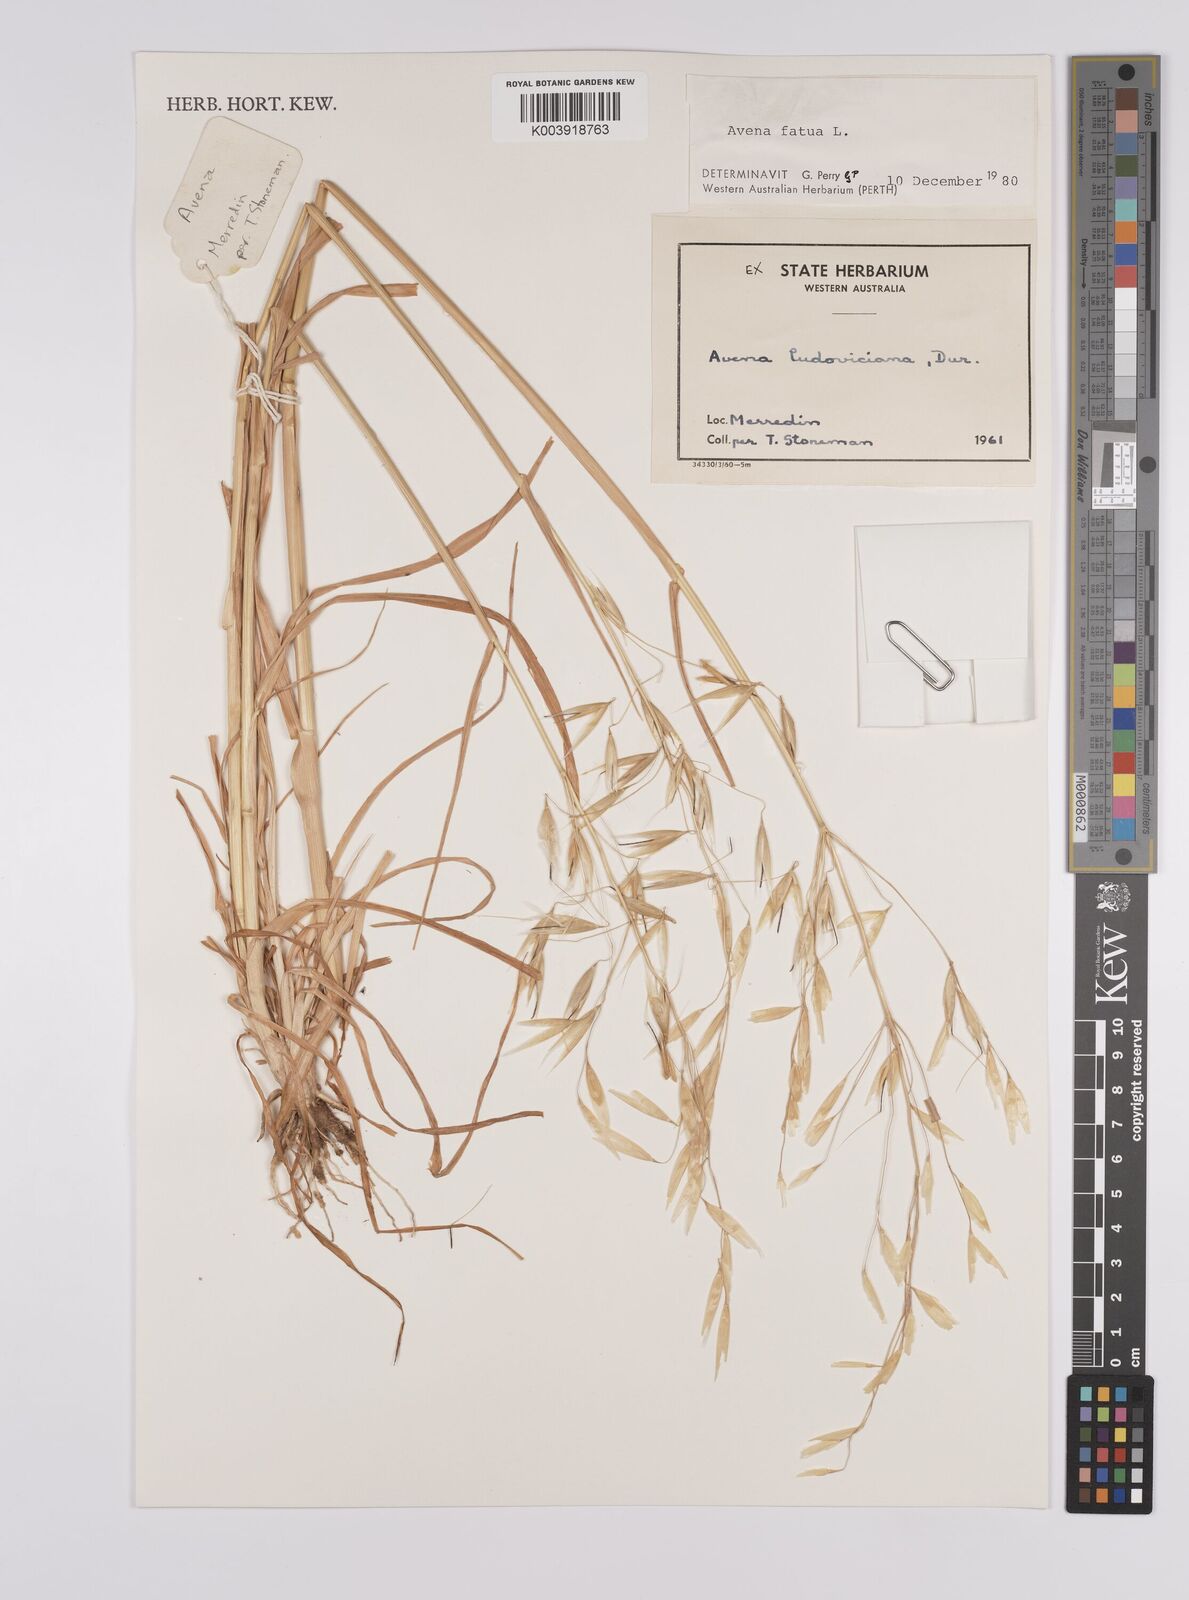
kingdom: Plantae
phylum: Tracheophyta
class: Liliopsida
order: Poales
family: Poaceae
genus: Avena
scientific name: Avena fatua
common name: Wild oat
